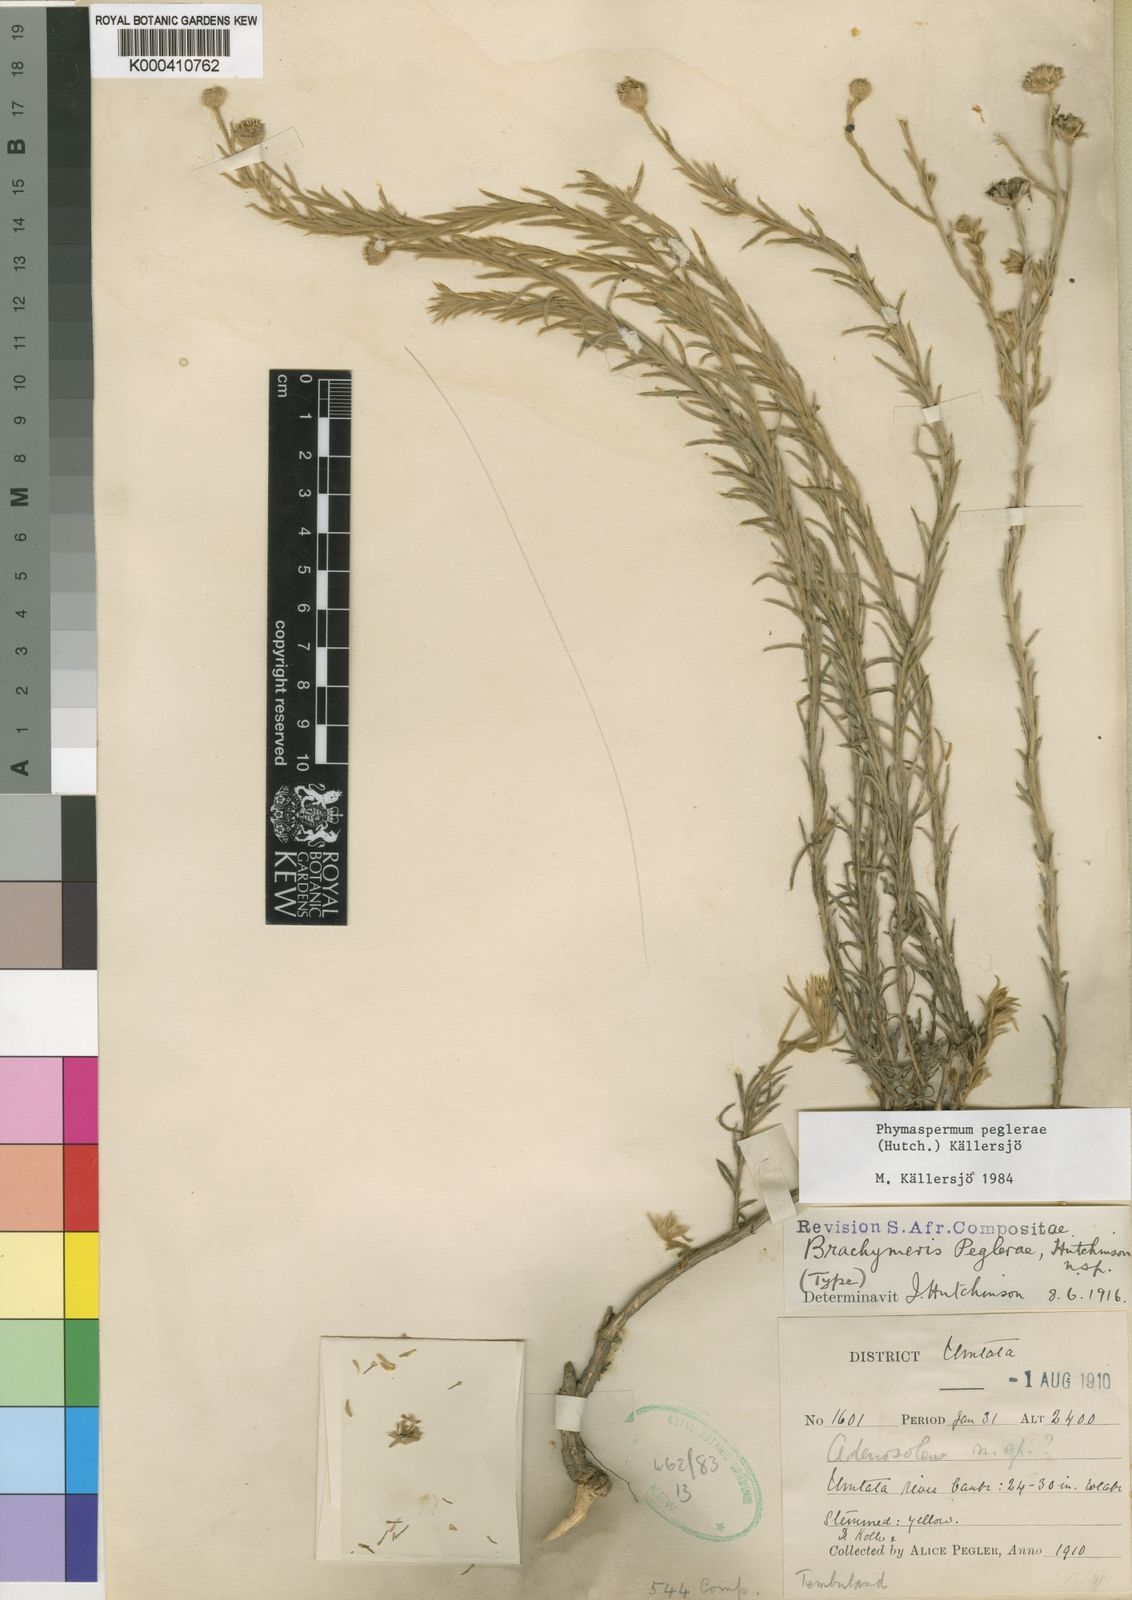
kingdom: Plantae
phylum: Tracheophyta
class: Magnoliopsida
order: Asterales
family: Asteraceae
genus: Phymaspermum
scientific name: Phymaspermum
